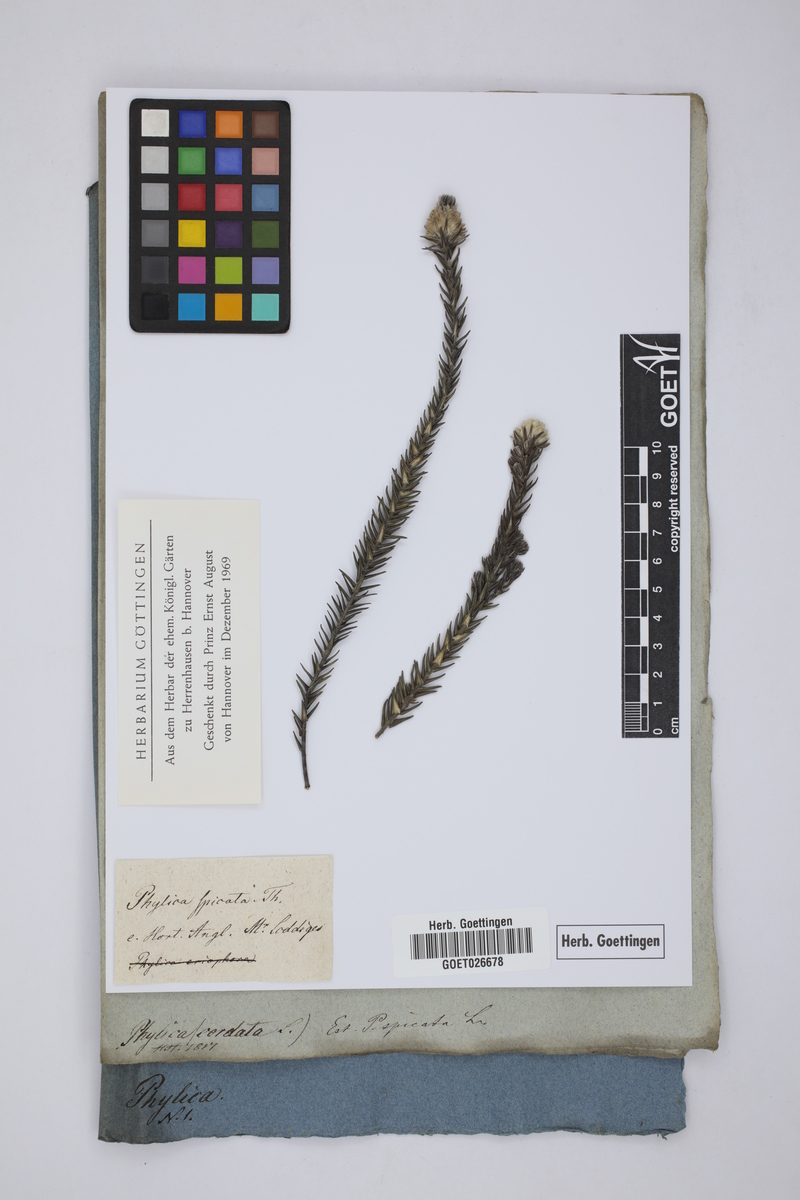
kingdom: Plantae
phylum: Tracheophyta
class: Magnoliopsida
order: Rosales
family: Rhamnaceae
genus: Phylica
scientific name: Phylica spicata
